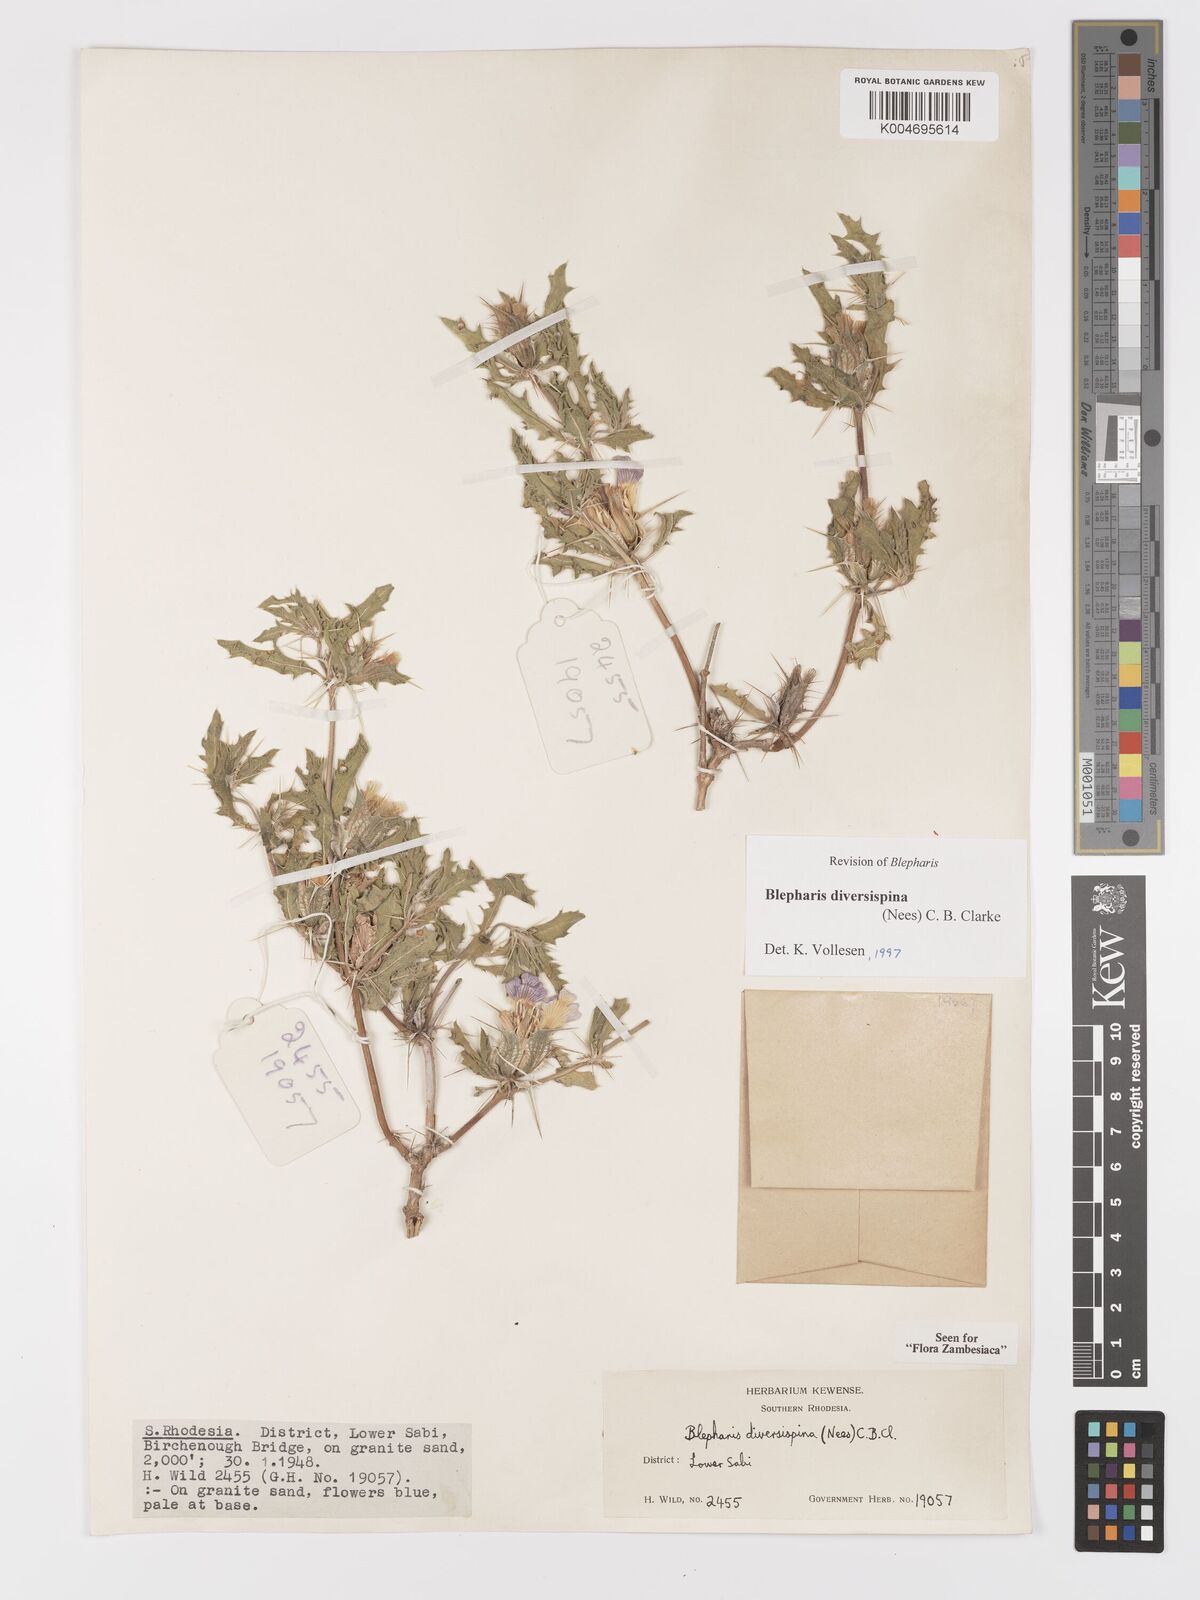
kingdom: Plantae
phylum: Tracheophyta
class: Magnoliopsida
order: Lamiales
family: Acanthaceae
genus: Blepharis
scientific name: Blepharis diversispina
